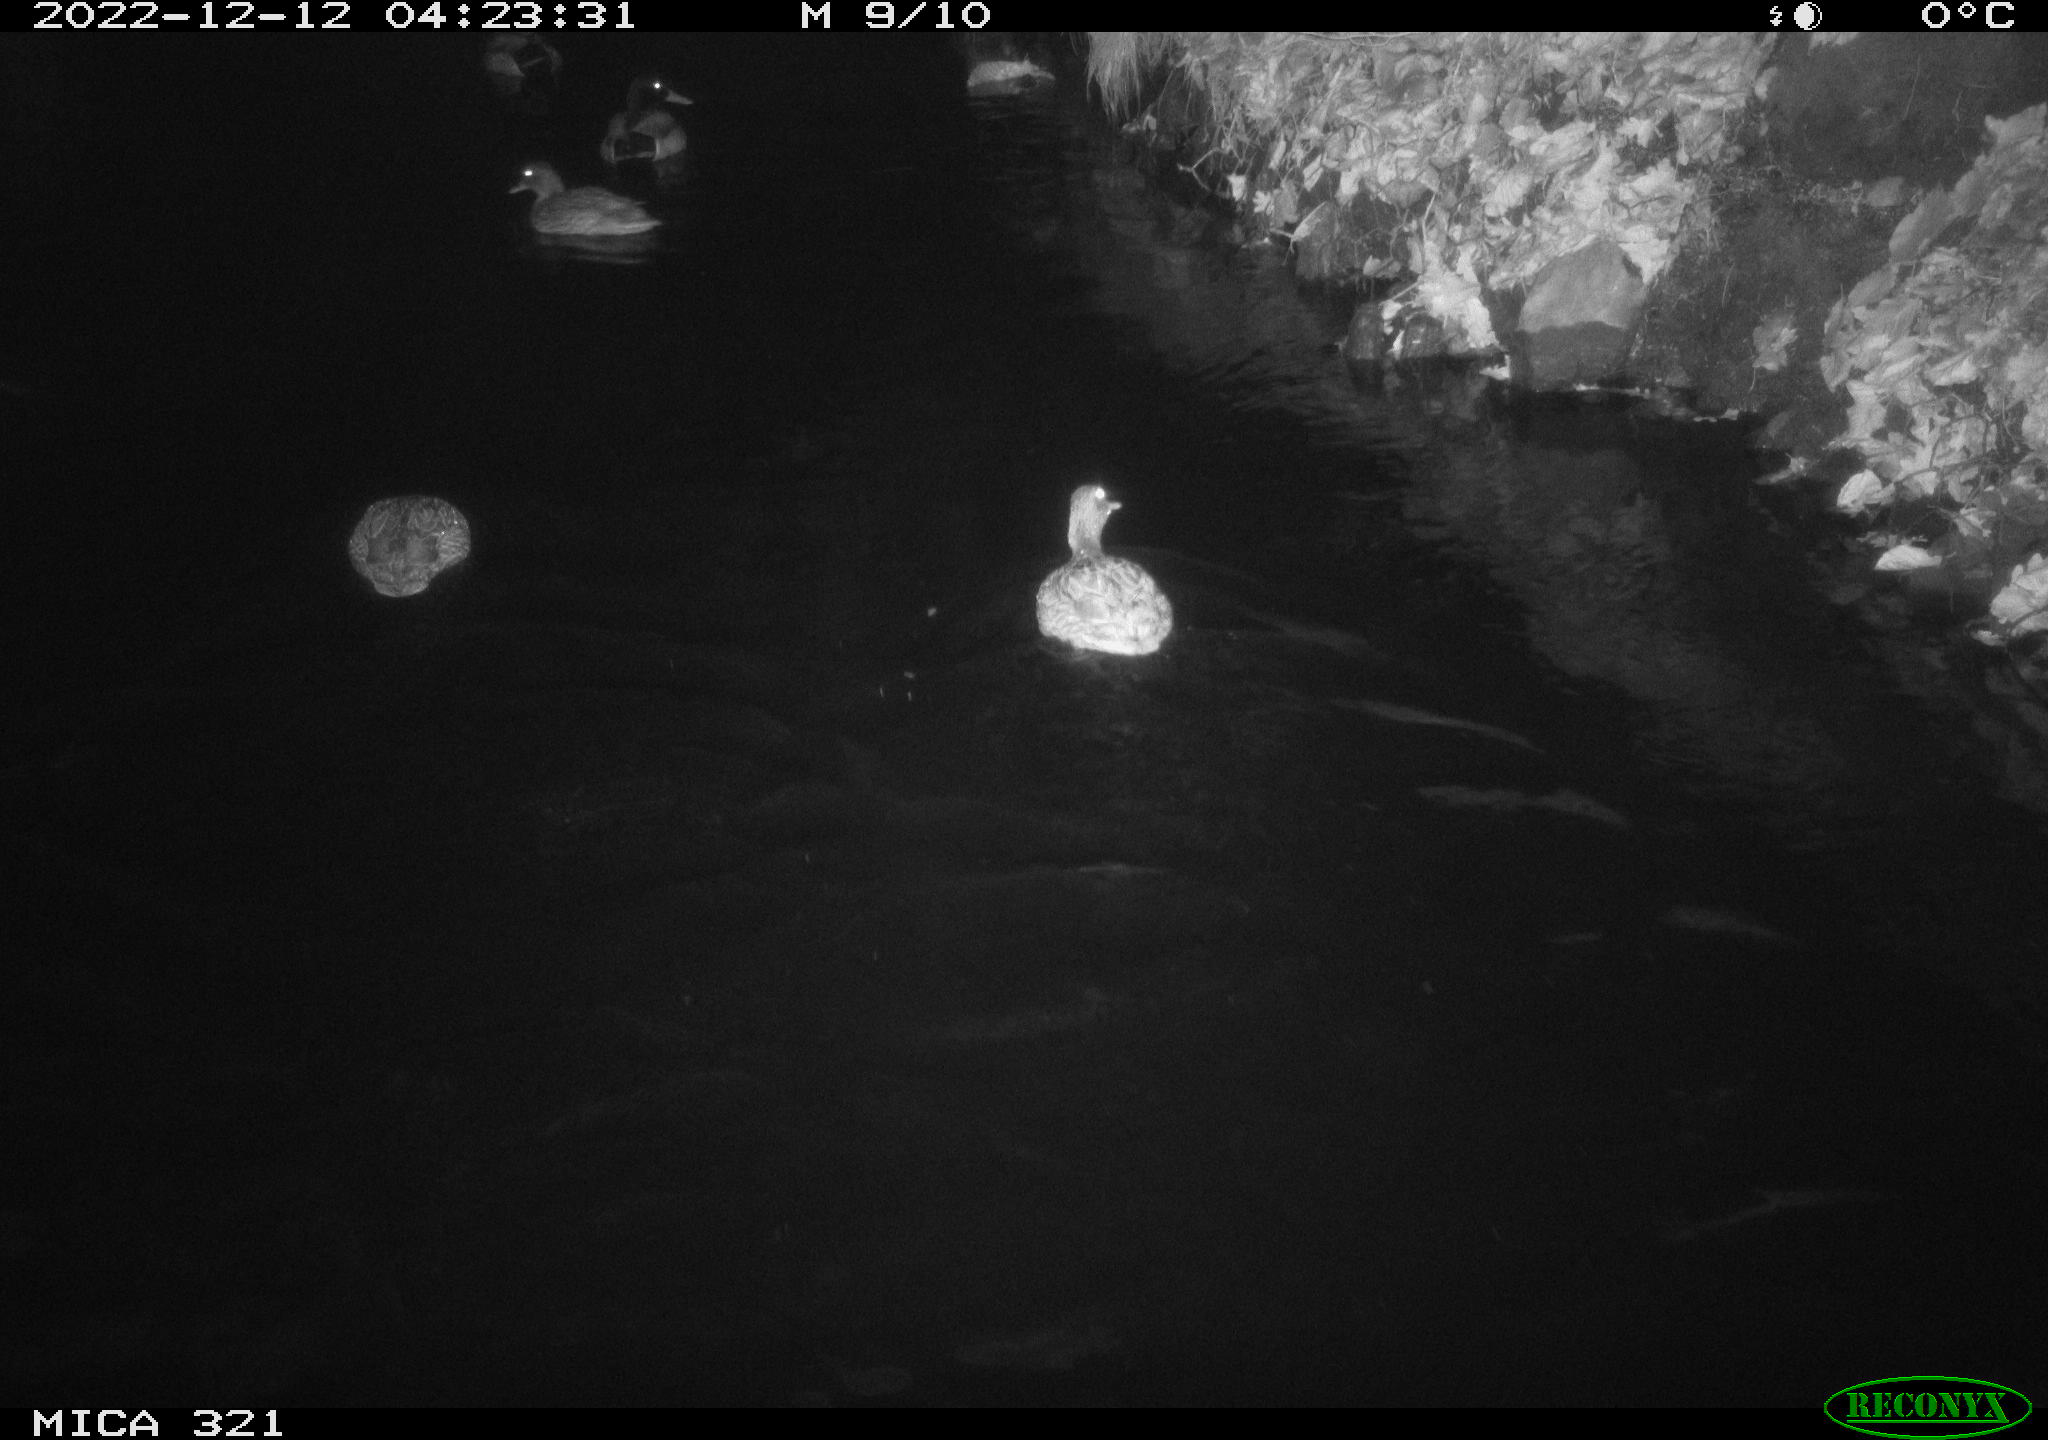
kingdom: Animalia
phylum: Chordata
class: Aves
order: Anseriformes
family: Anatidae
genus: Anas
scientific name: Anas
